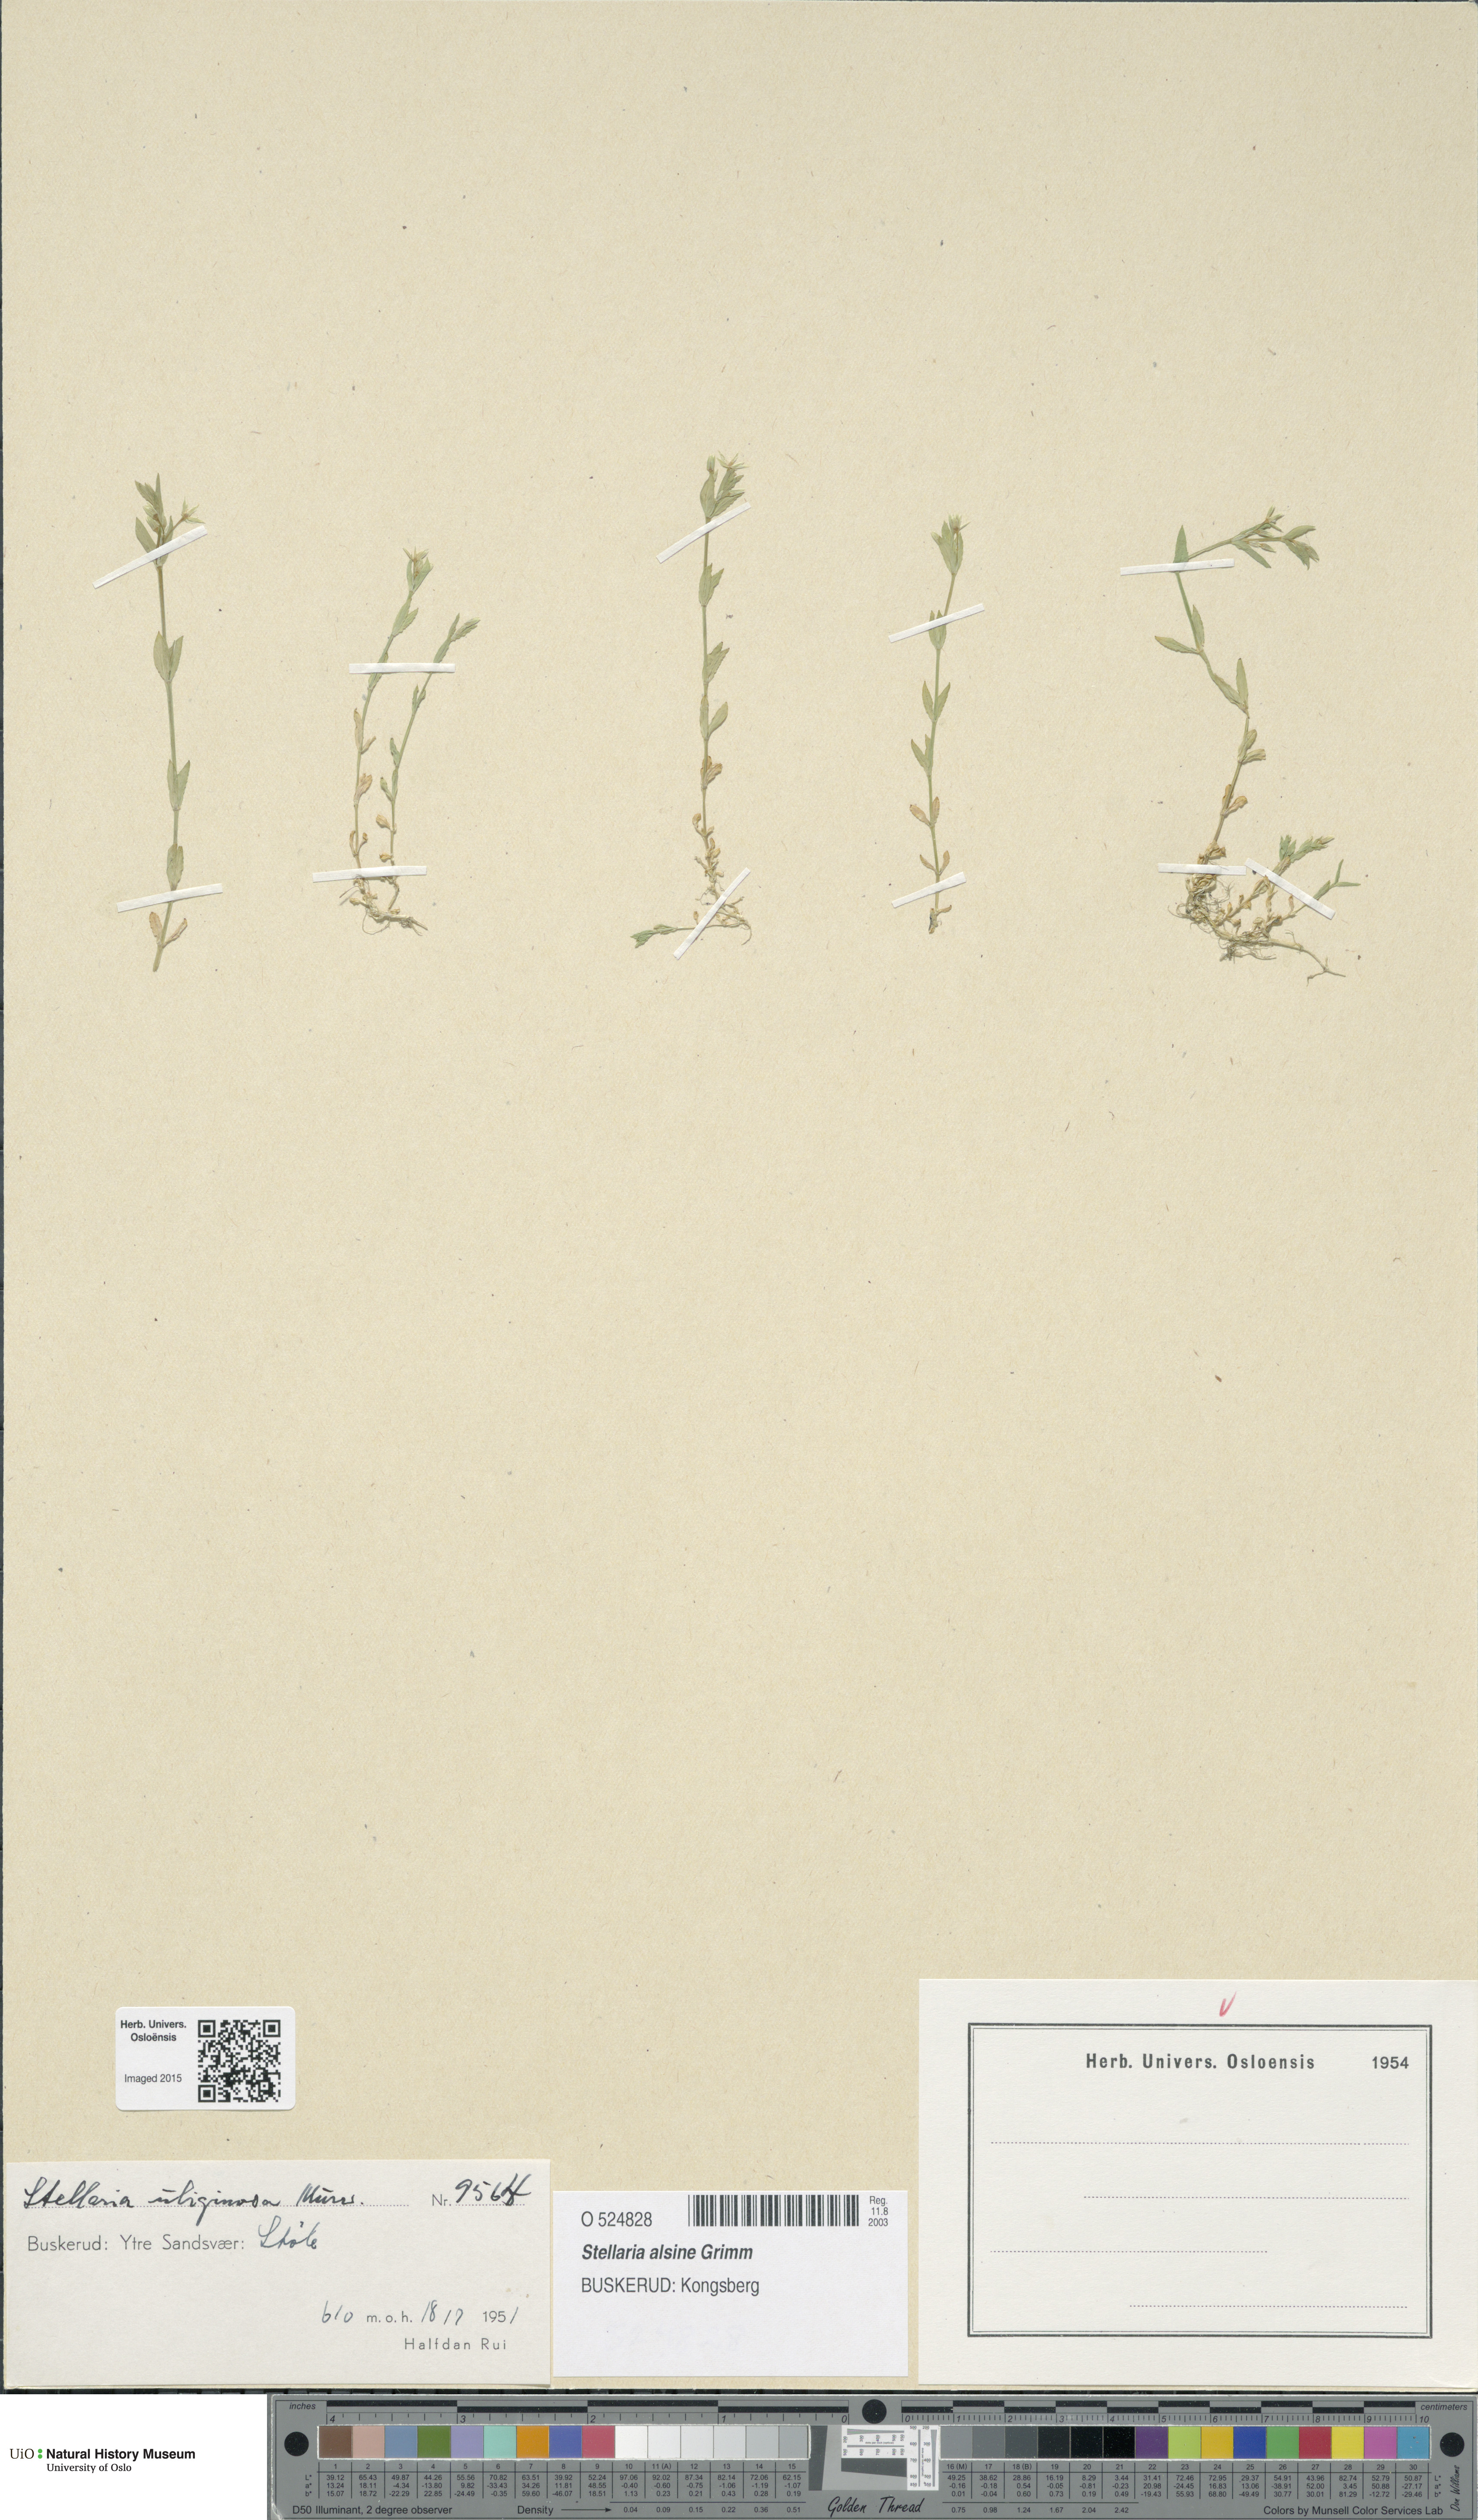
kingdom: Plantae
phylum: Tracheophyta
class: Magnoliopsida
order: Caryophyllales
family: Caryophyllaceae
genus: Stellaria
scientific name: Stellaria alsine
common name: Bog stitchwort
